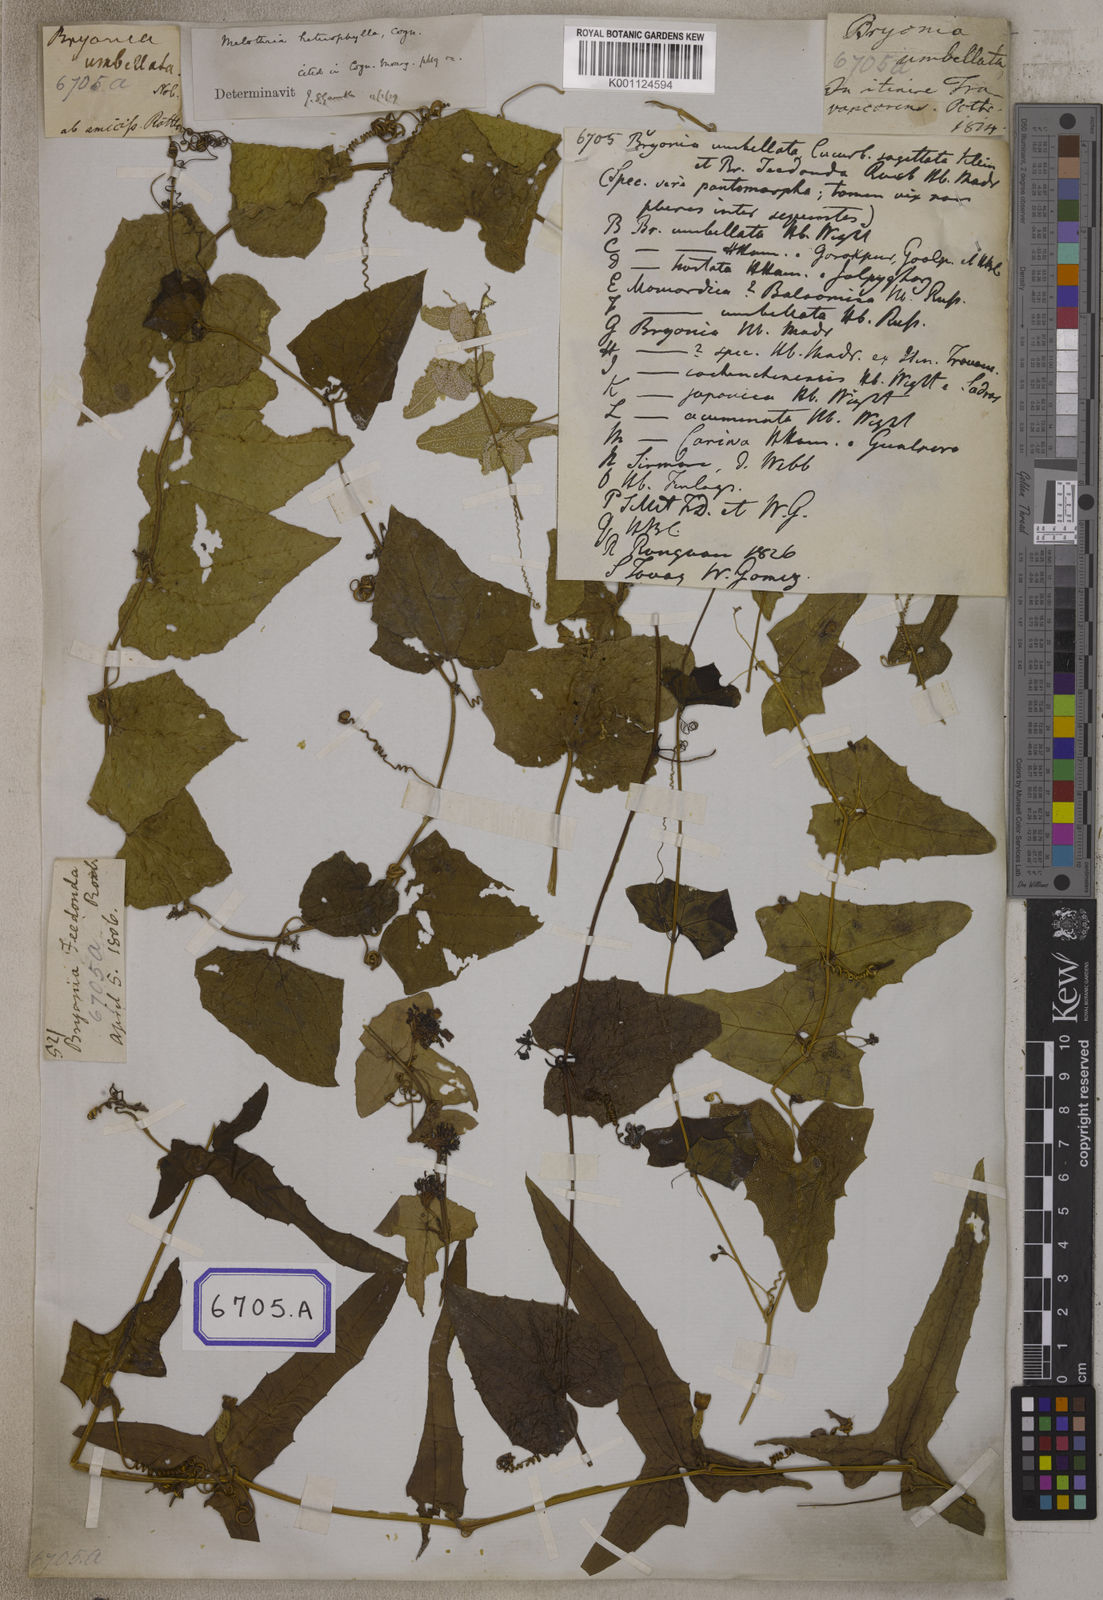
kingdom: Plantae
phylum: Tracheophyta
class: Magnoliopsida
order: Cucurbitales
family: Cucurbitaceae
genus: Bryonia
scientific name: Bryonia
